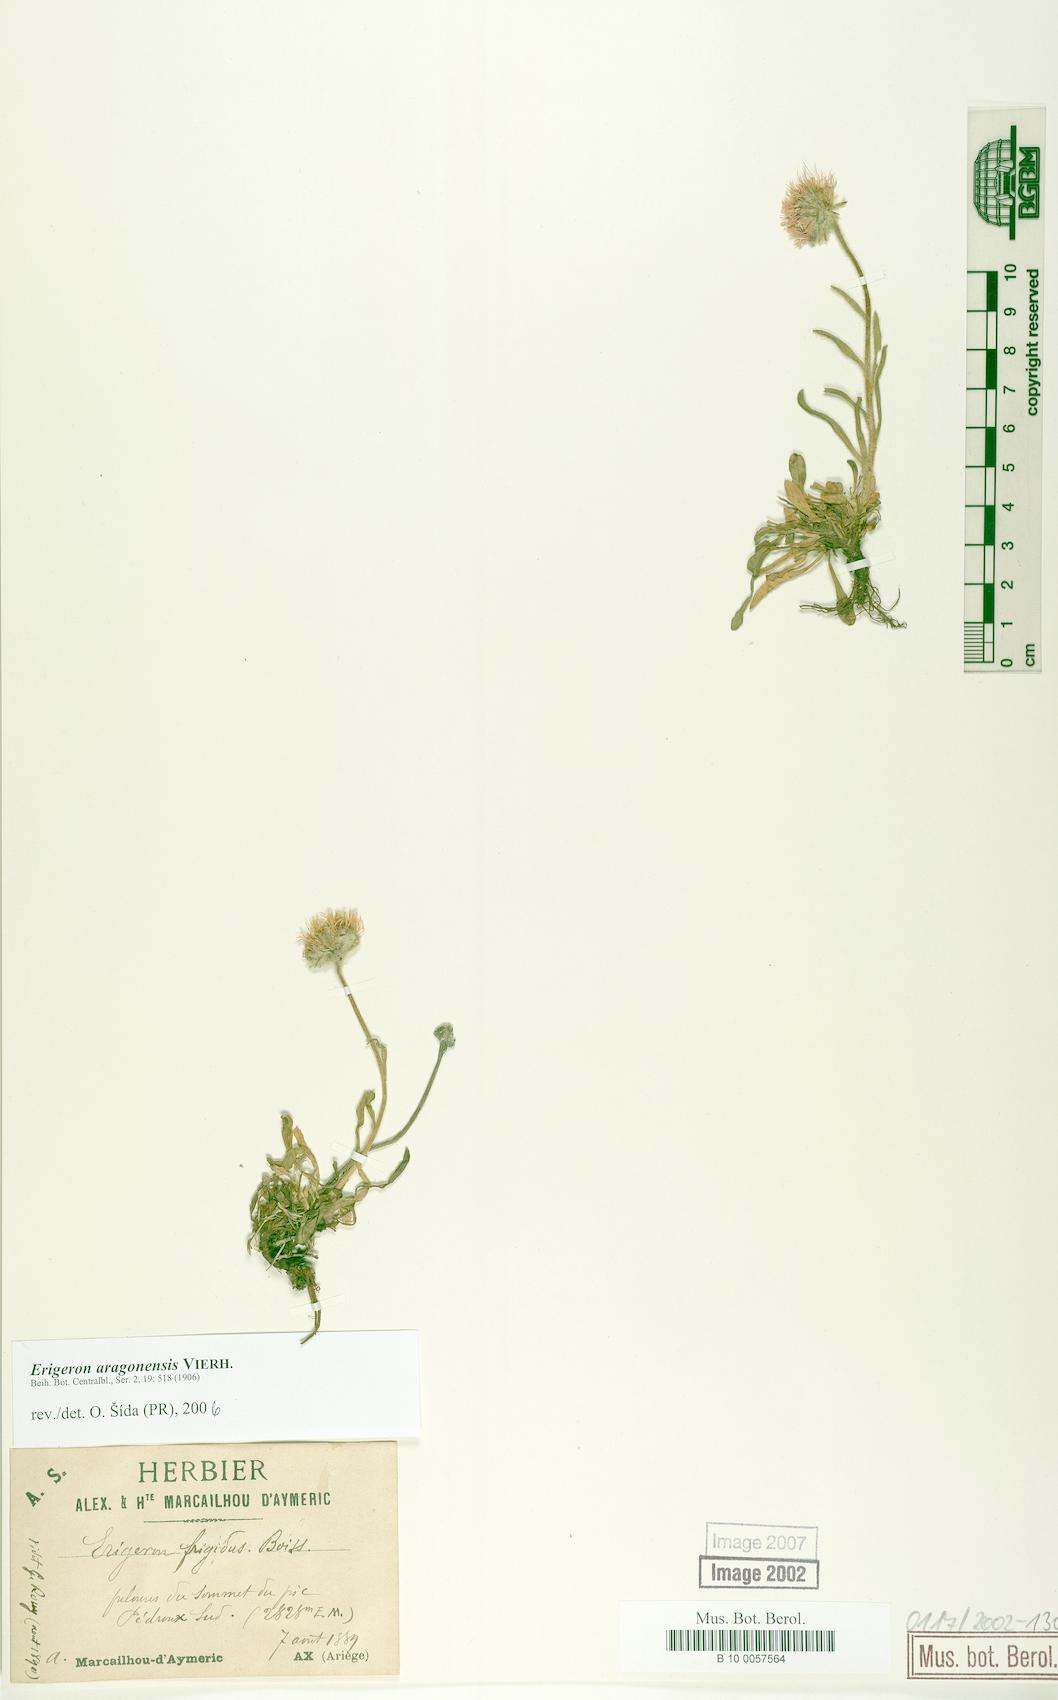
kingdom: Plantae
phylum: Tracheophyta
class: Magnoliopsida
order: Asterales
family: Asteraceae
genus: Erigeron
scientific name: Erigeron aragonensis
